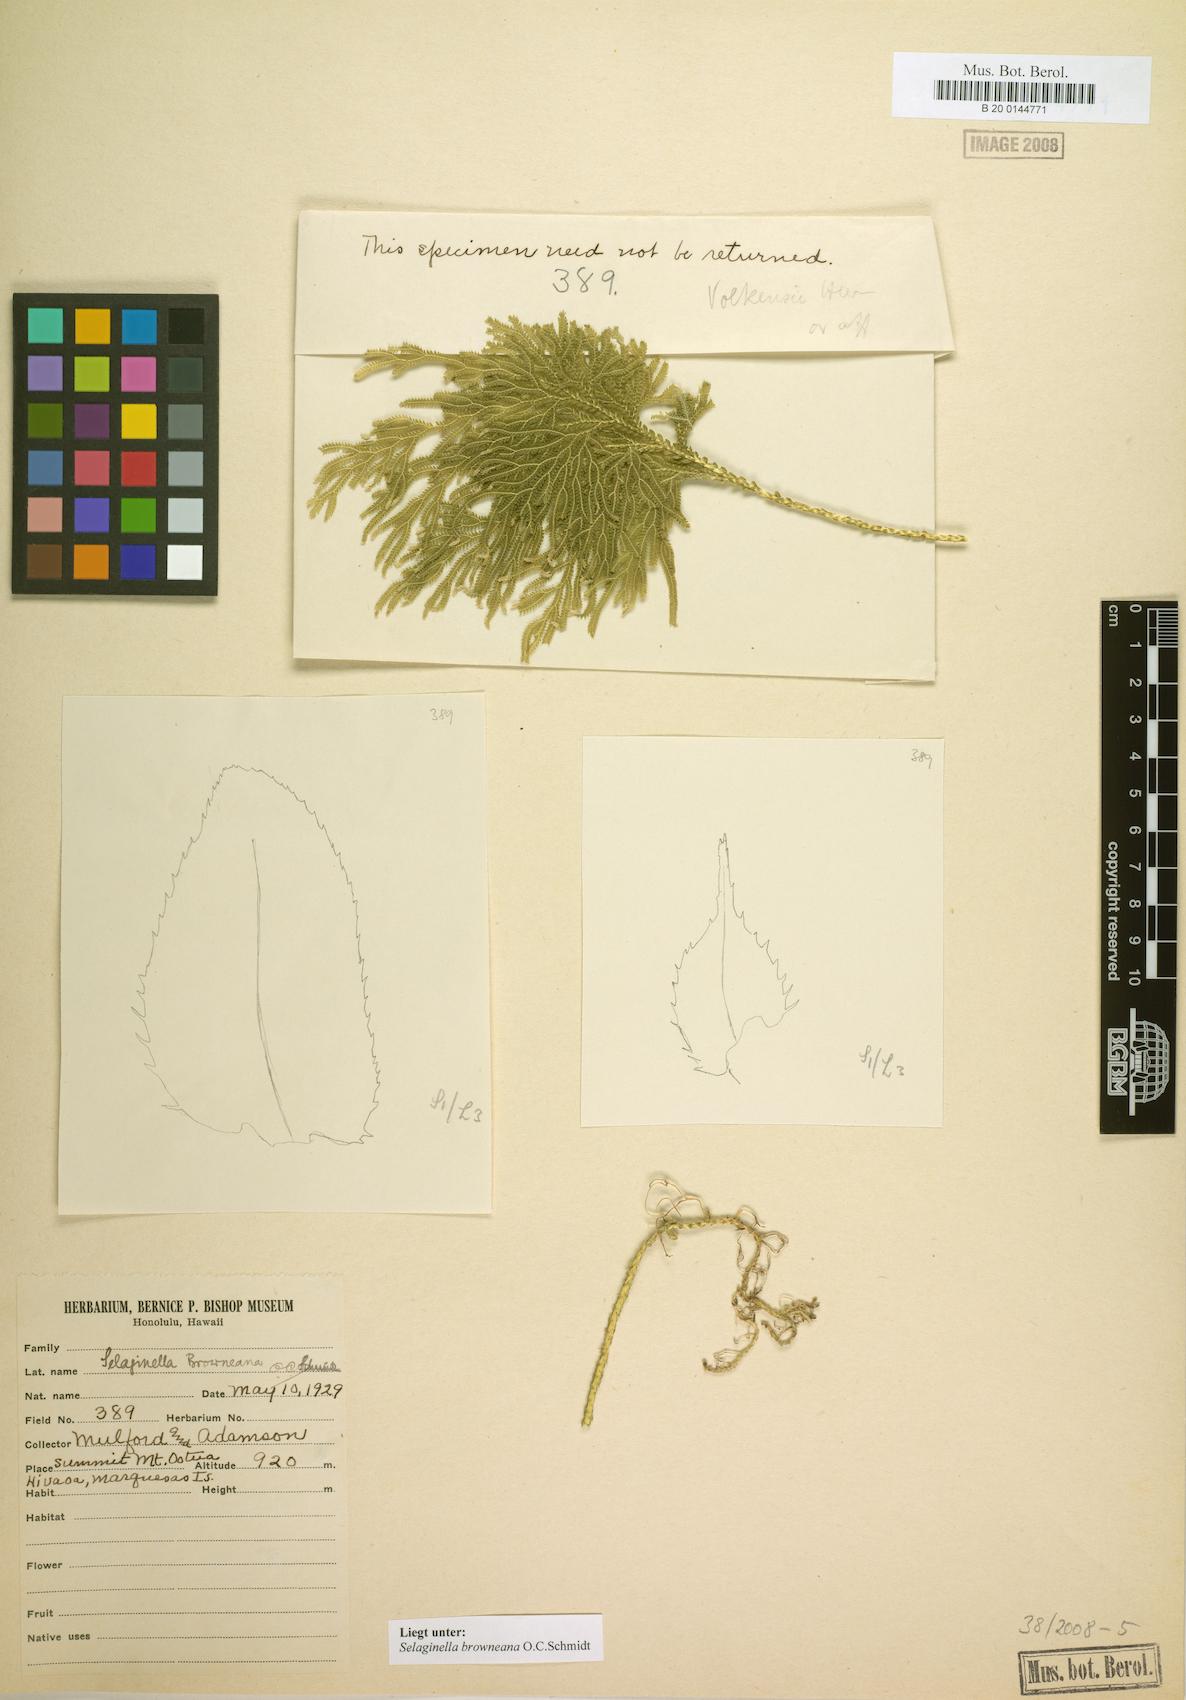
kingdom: Plantae
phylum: Tracheophyta
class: Lycopodiopsida
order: Selaginellales
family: Selaginellaceae
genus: Selaginella
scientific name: Selaginella arbuscula
